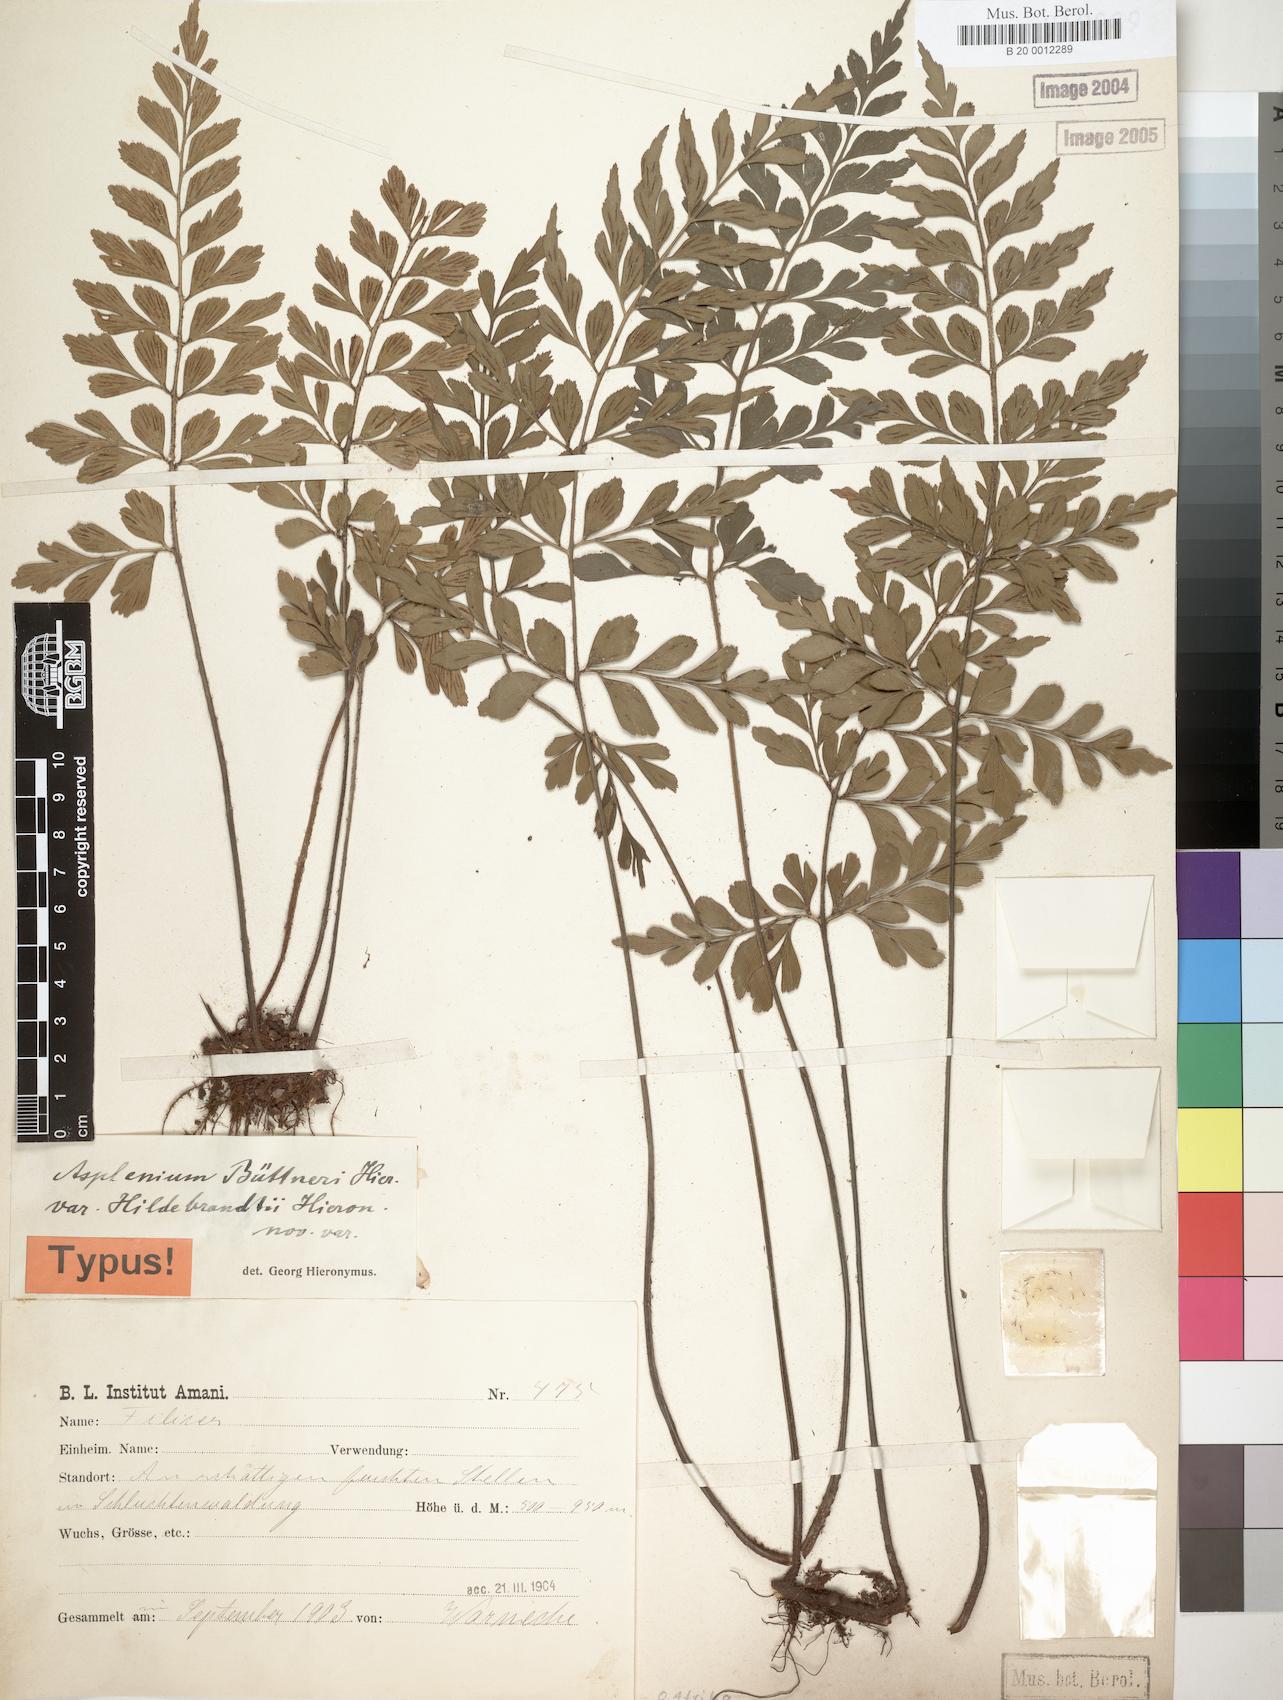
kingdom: Plantae
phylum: Tracheophyta
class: Polypodiopsida
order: Polypodiales
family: Aspleniaceae
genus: Asplenium
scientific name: Asplenium hildebrandtianum
